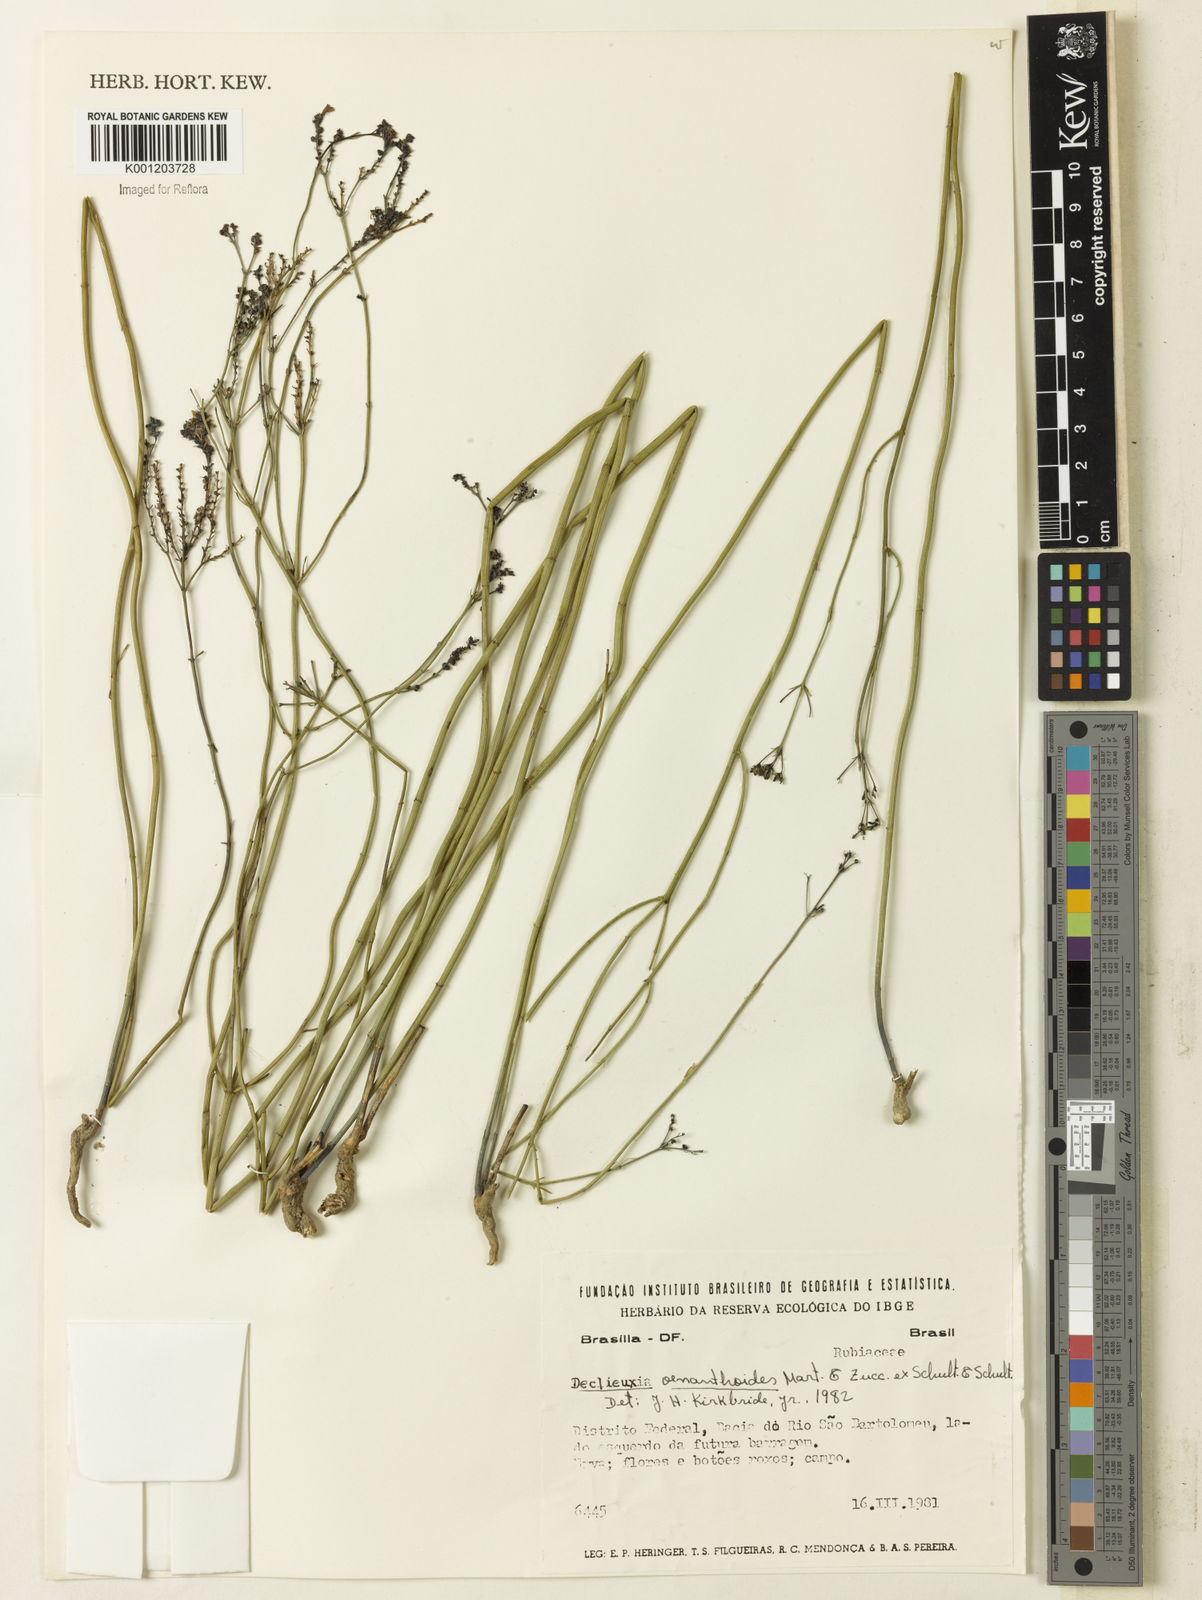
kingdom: Plantae
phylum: Tracheophyta
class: Magnoliopsida
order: Gentianales
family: Rubiaceae
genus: Declieuxia
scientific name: Declieuxia
